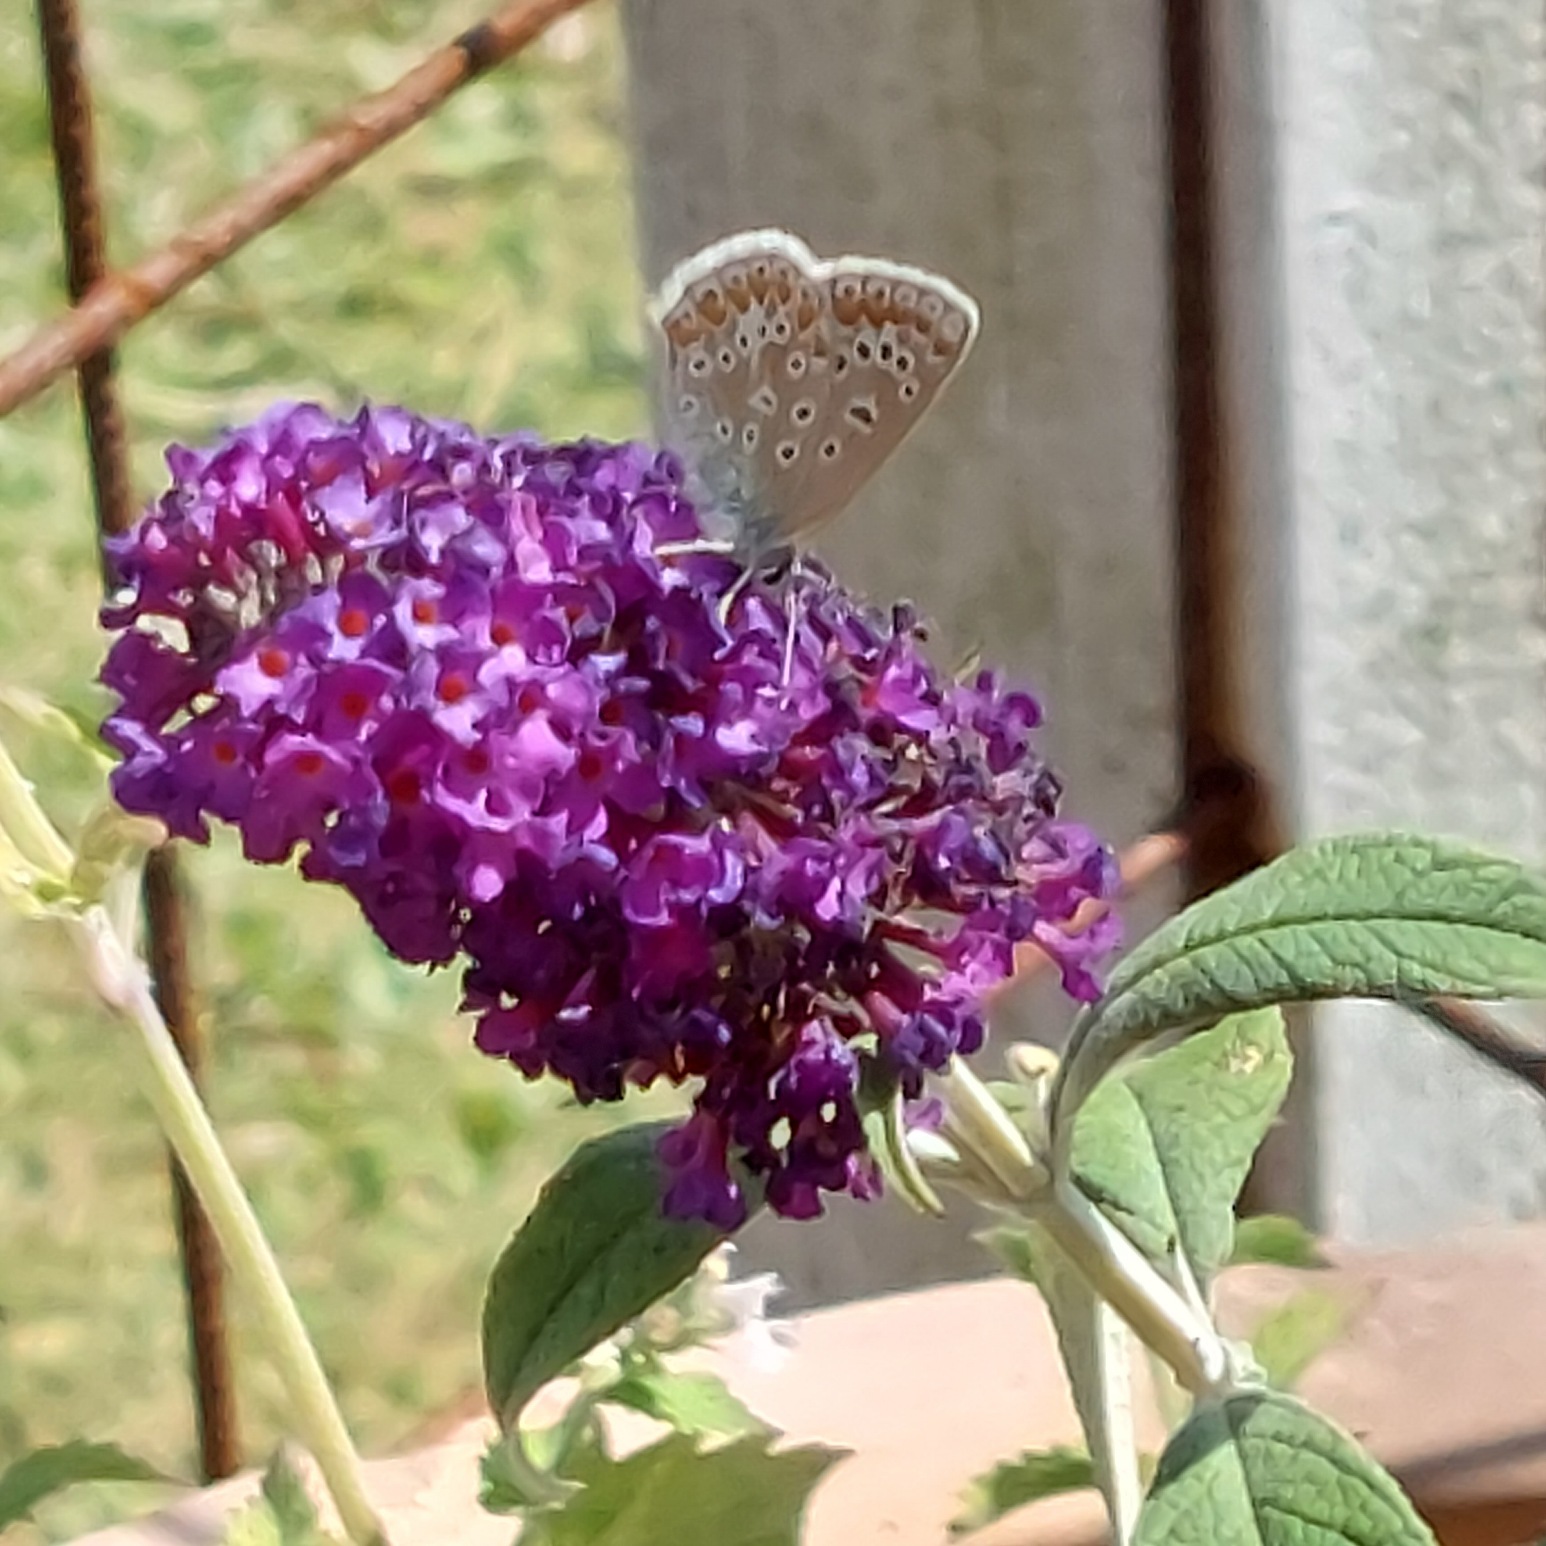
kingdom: Animalia
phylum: Arthropoda
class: Insecta
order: Lepidoptera
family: Lycaenidae
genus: Polyommatus
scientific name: Polyommatus icarus
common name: Almindelig blåfugl
